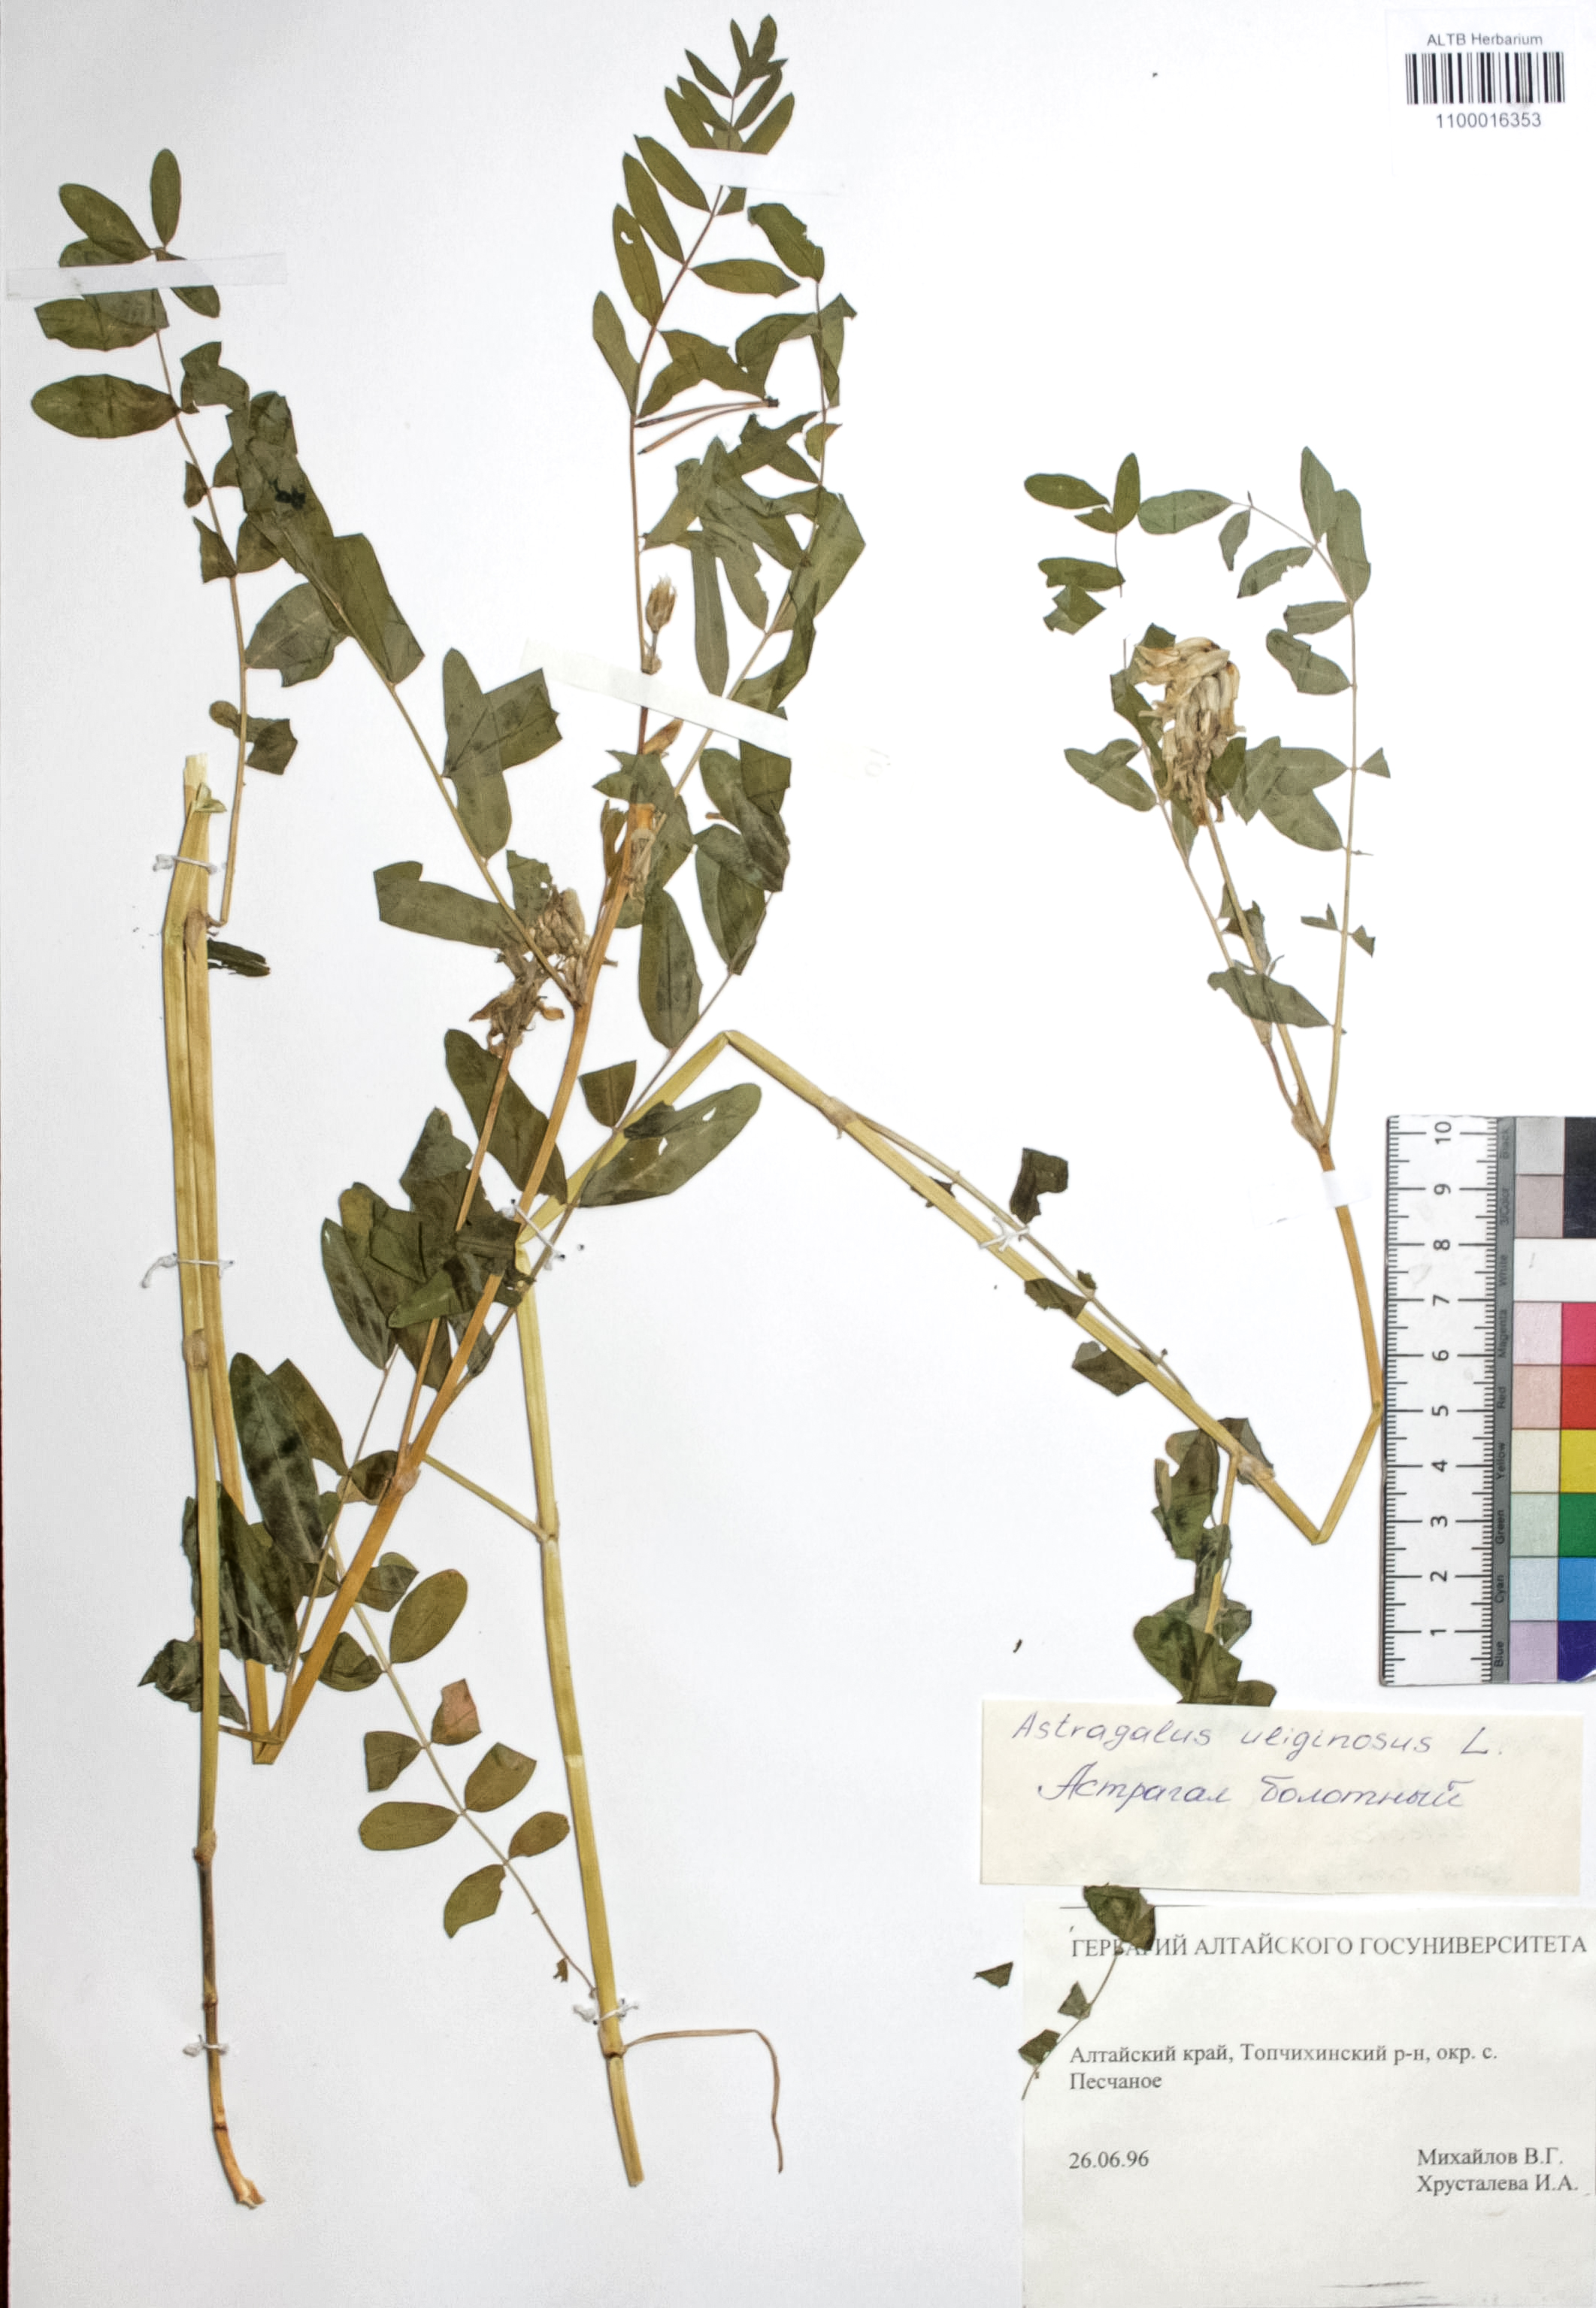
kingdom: Plantae
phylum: Tracheophyta
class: Magnoliopsida
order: Fabales
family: Fabaceae
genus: Astragalus
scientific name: Astragalus uliginosus
